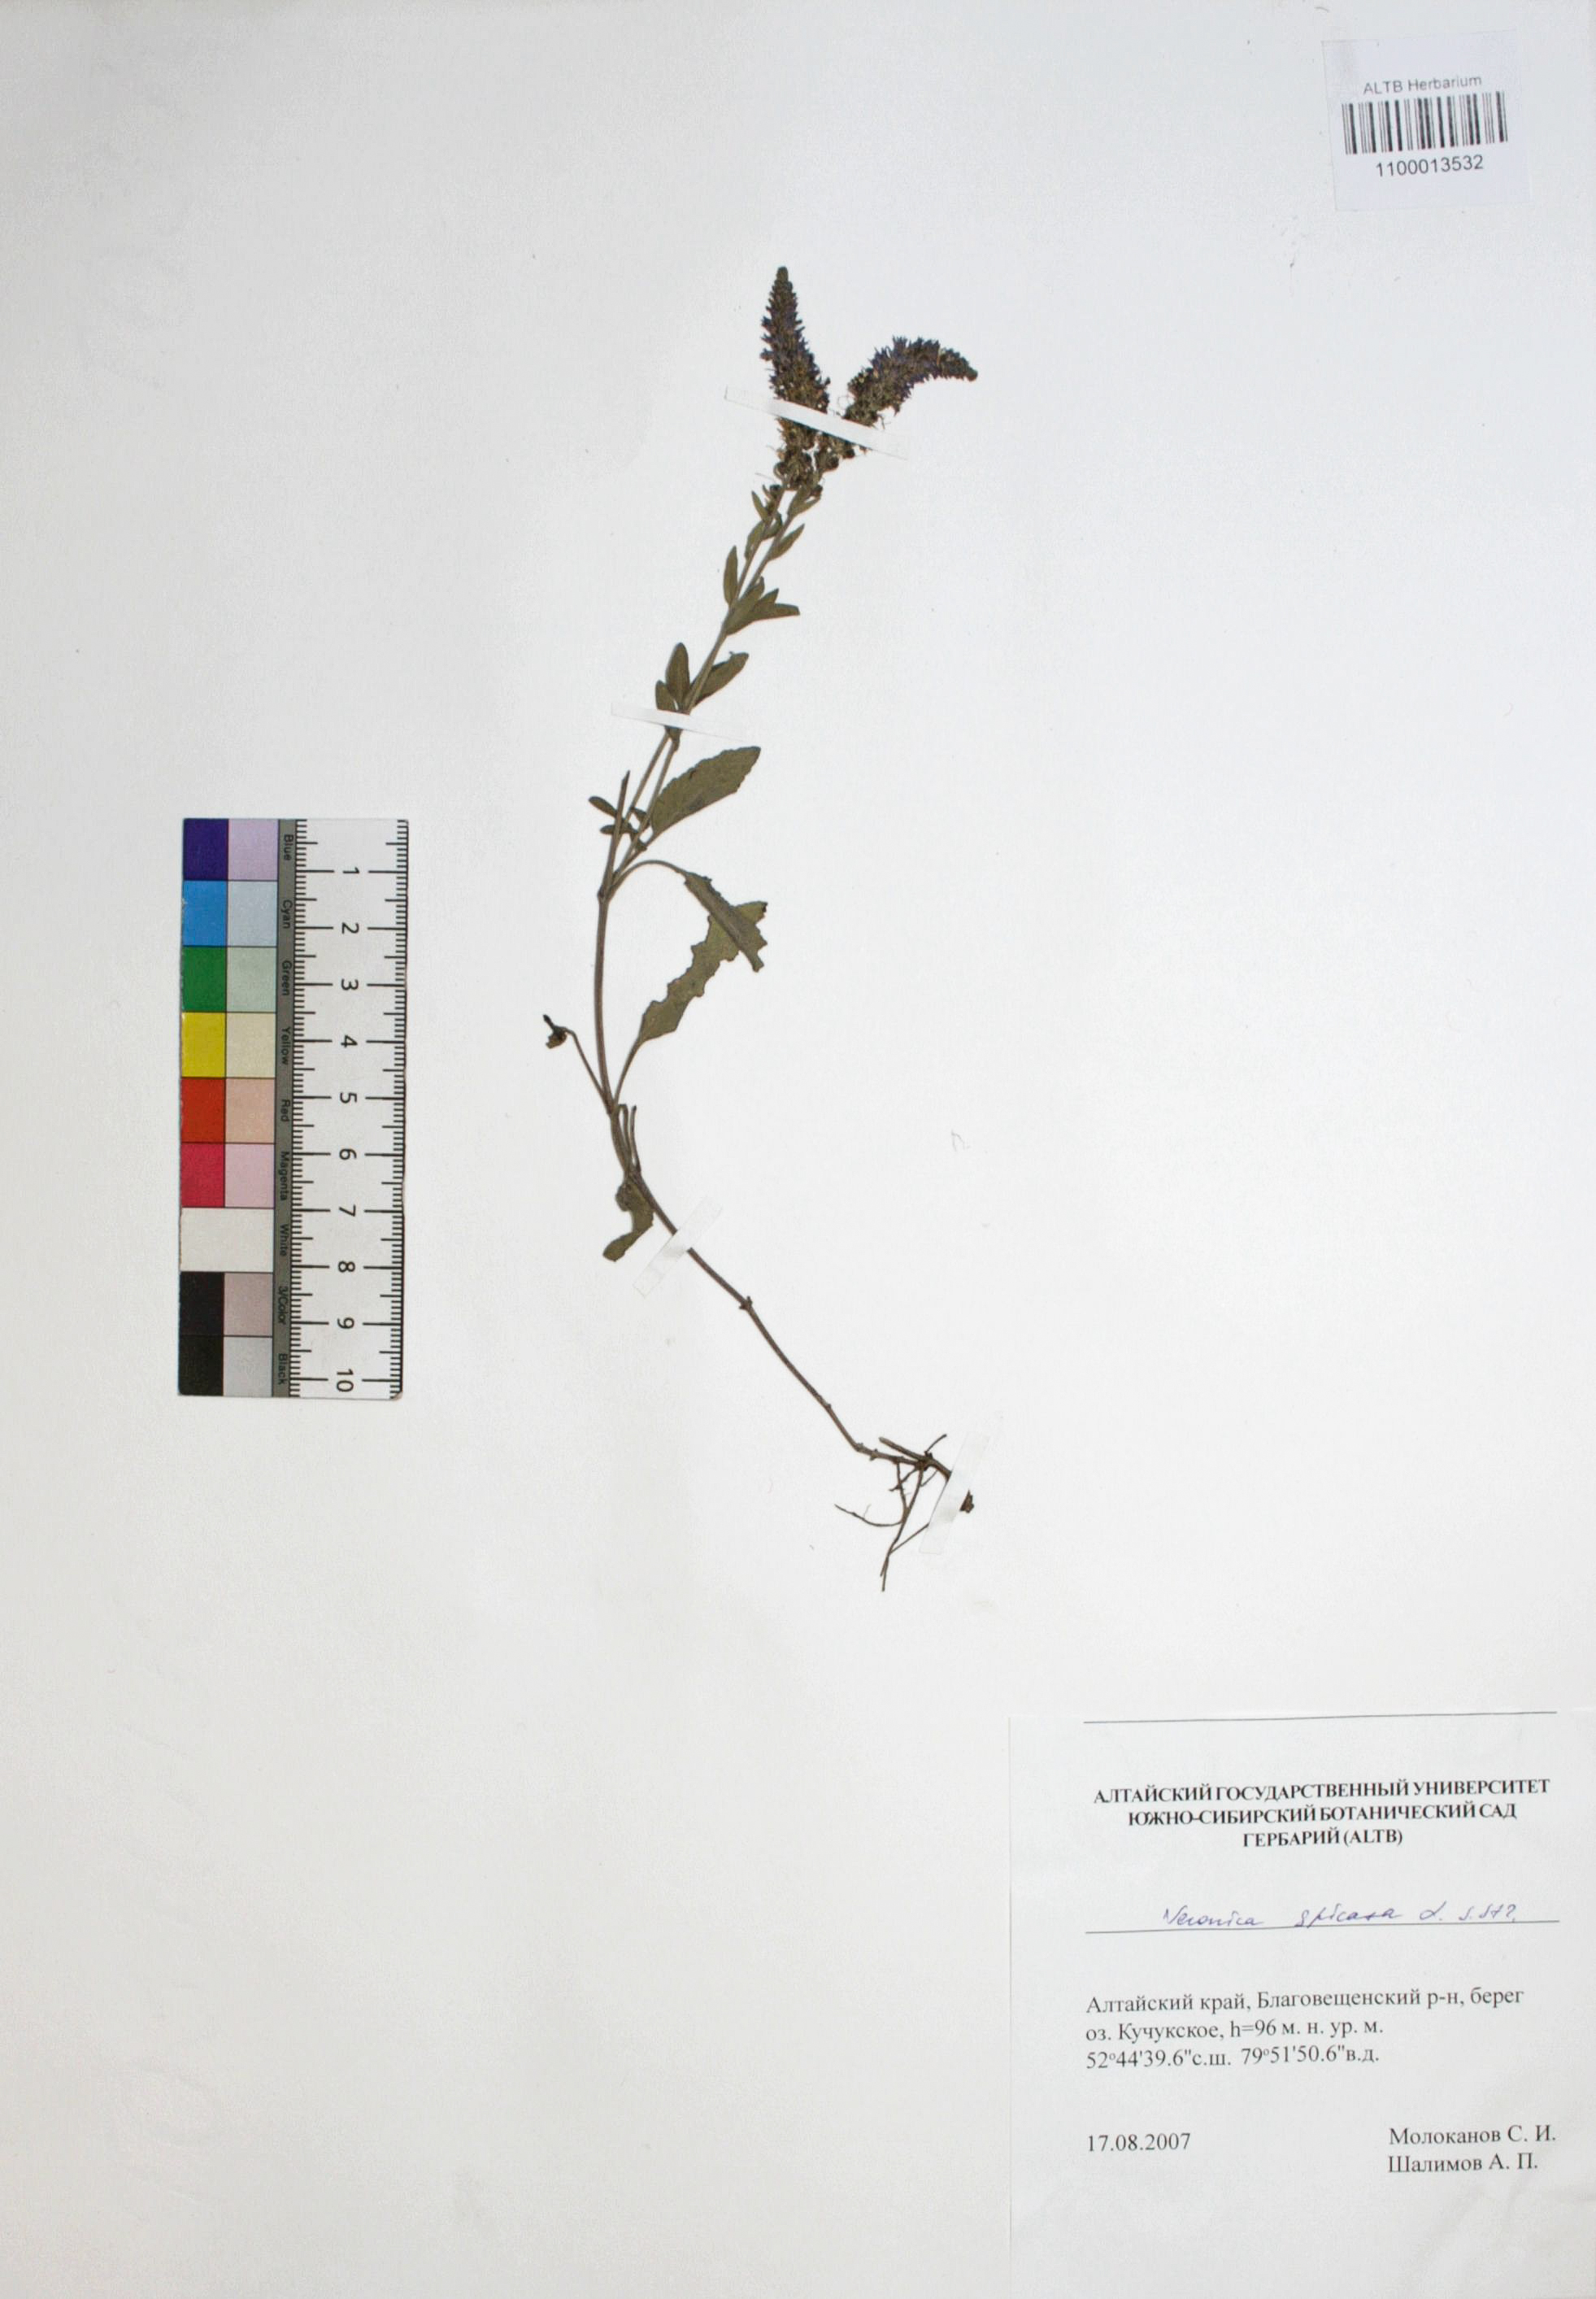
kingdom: Plantae
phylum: Tracheophyta
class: Magnoliopsida
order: Lamiales
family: Plantaginaceae
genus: Veronica
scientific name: Veronica spicata
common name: Spiked speedwell
